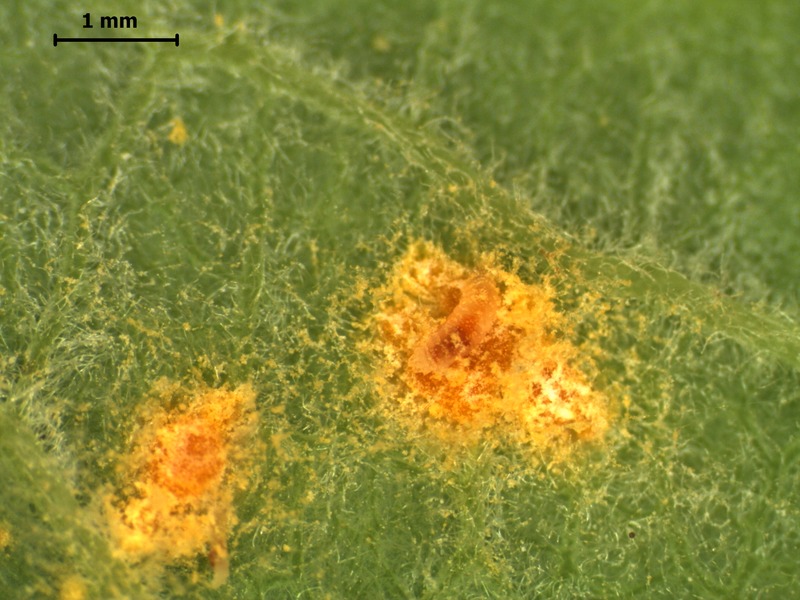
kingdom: Fungi
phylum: Basidiomycota
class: Pucciniomycetes
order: Pucciniales
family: Melampsoraceae
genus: Melampsora
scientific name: Melampsora caprearum
